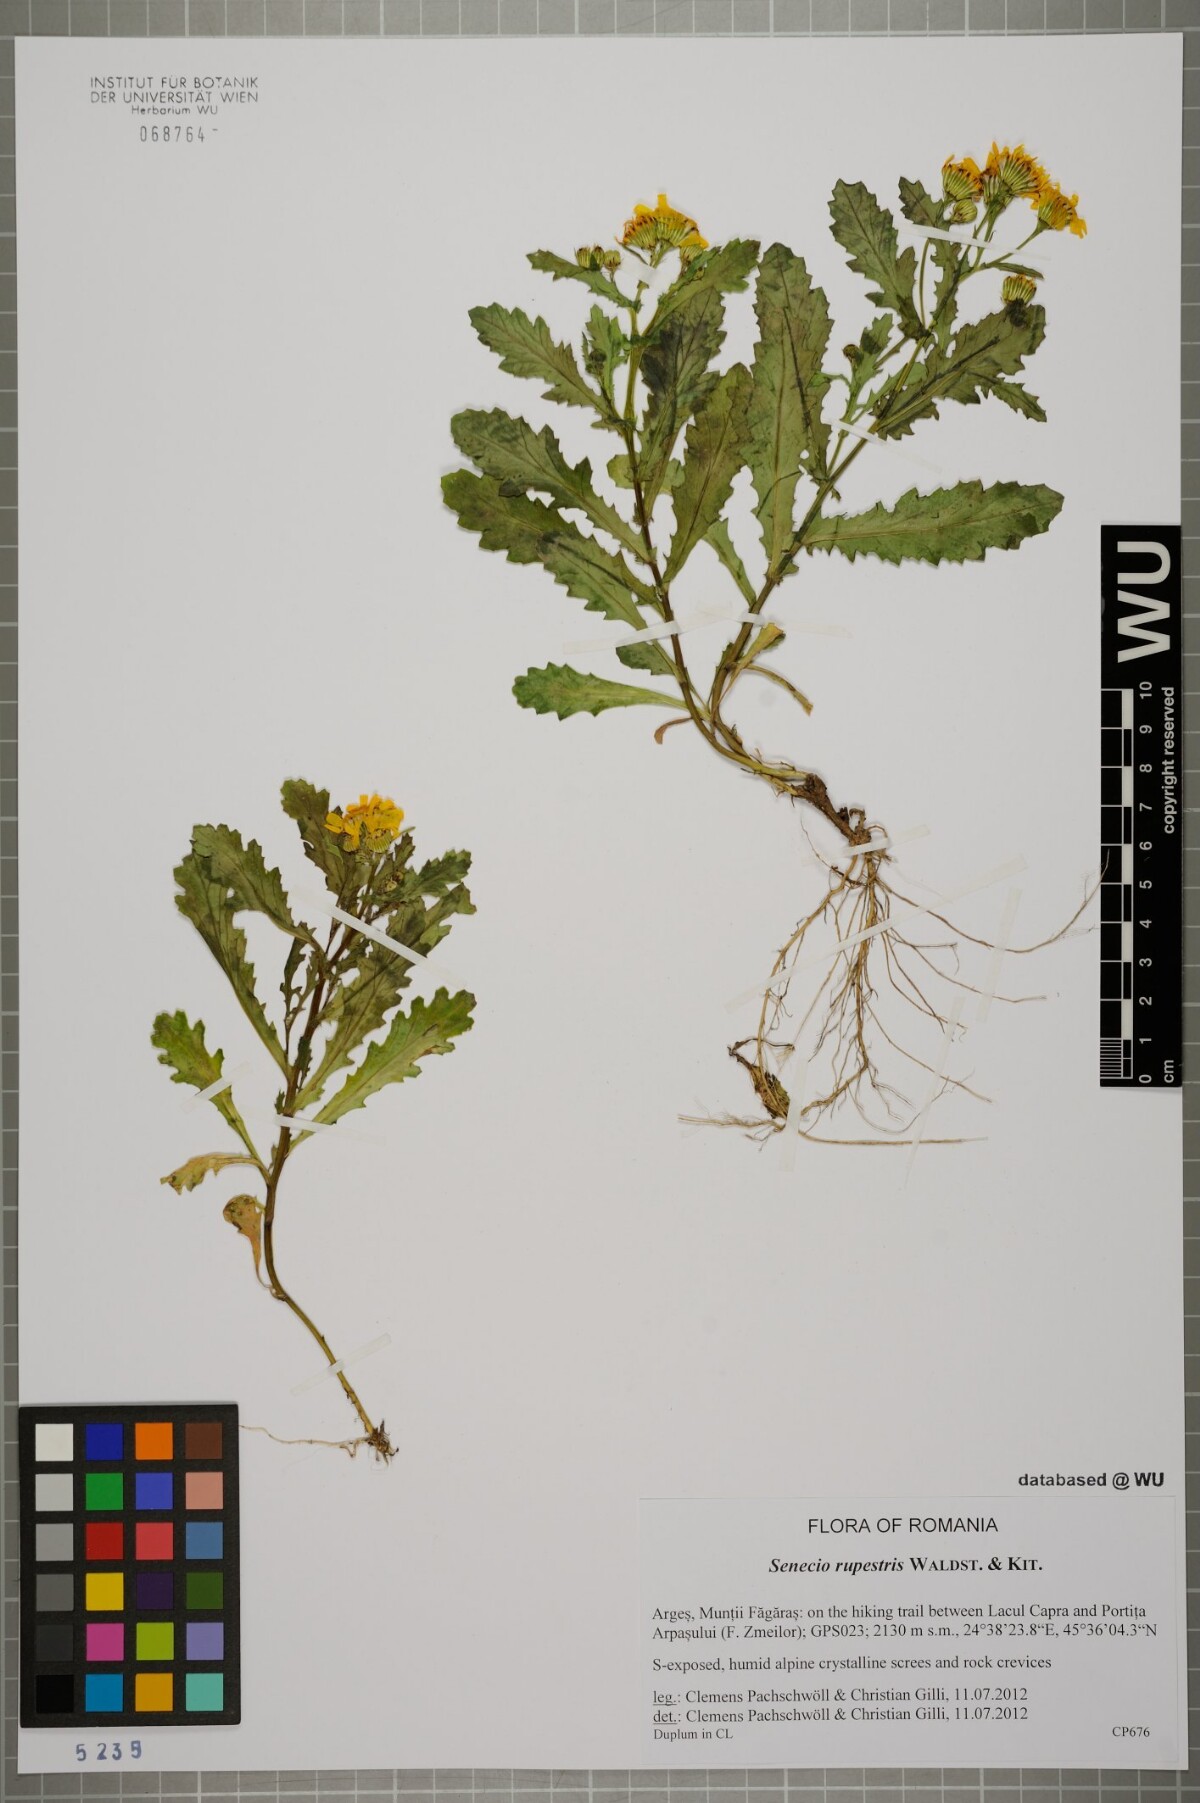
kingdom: Plantae
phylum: Tracheophyta
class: Magnoliopsida
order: Asterales
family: Asteraceae
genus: Senecio
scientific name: Senecio rupestris
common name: Rock ragwort
